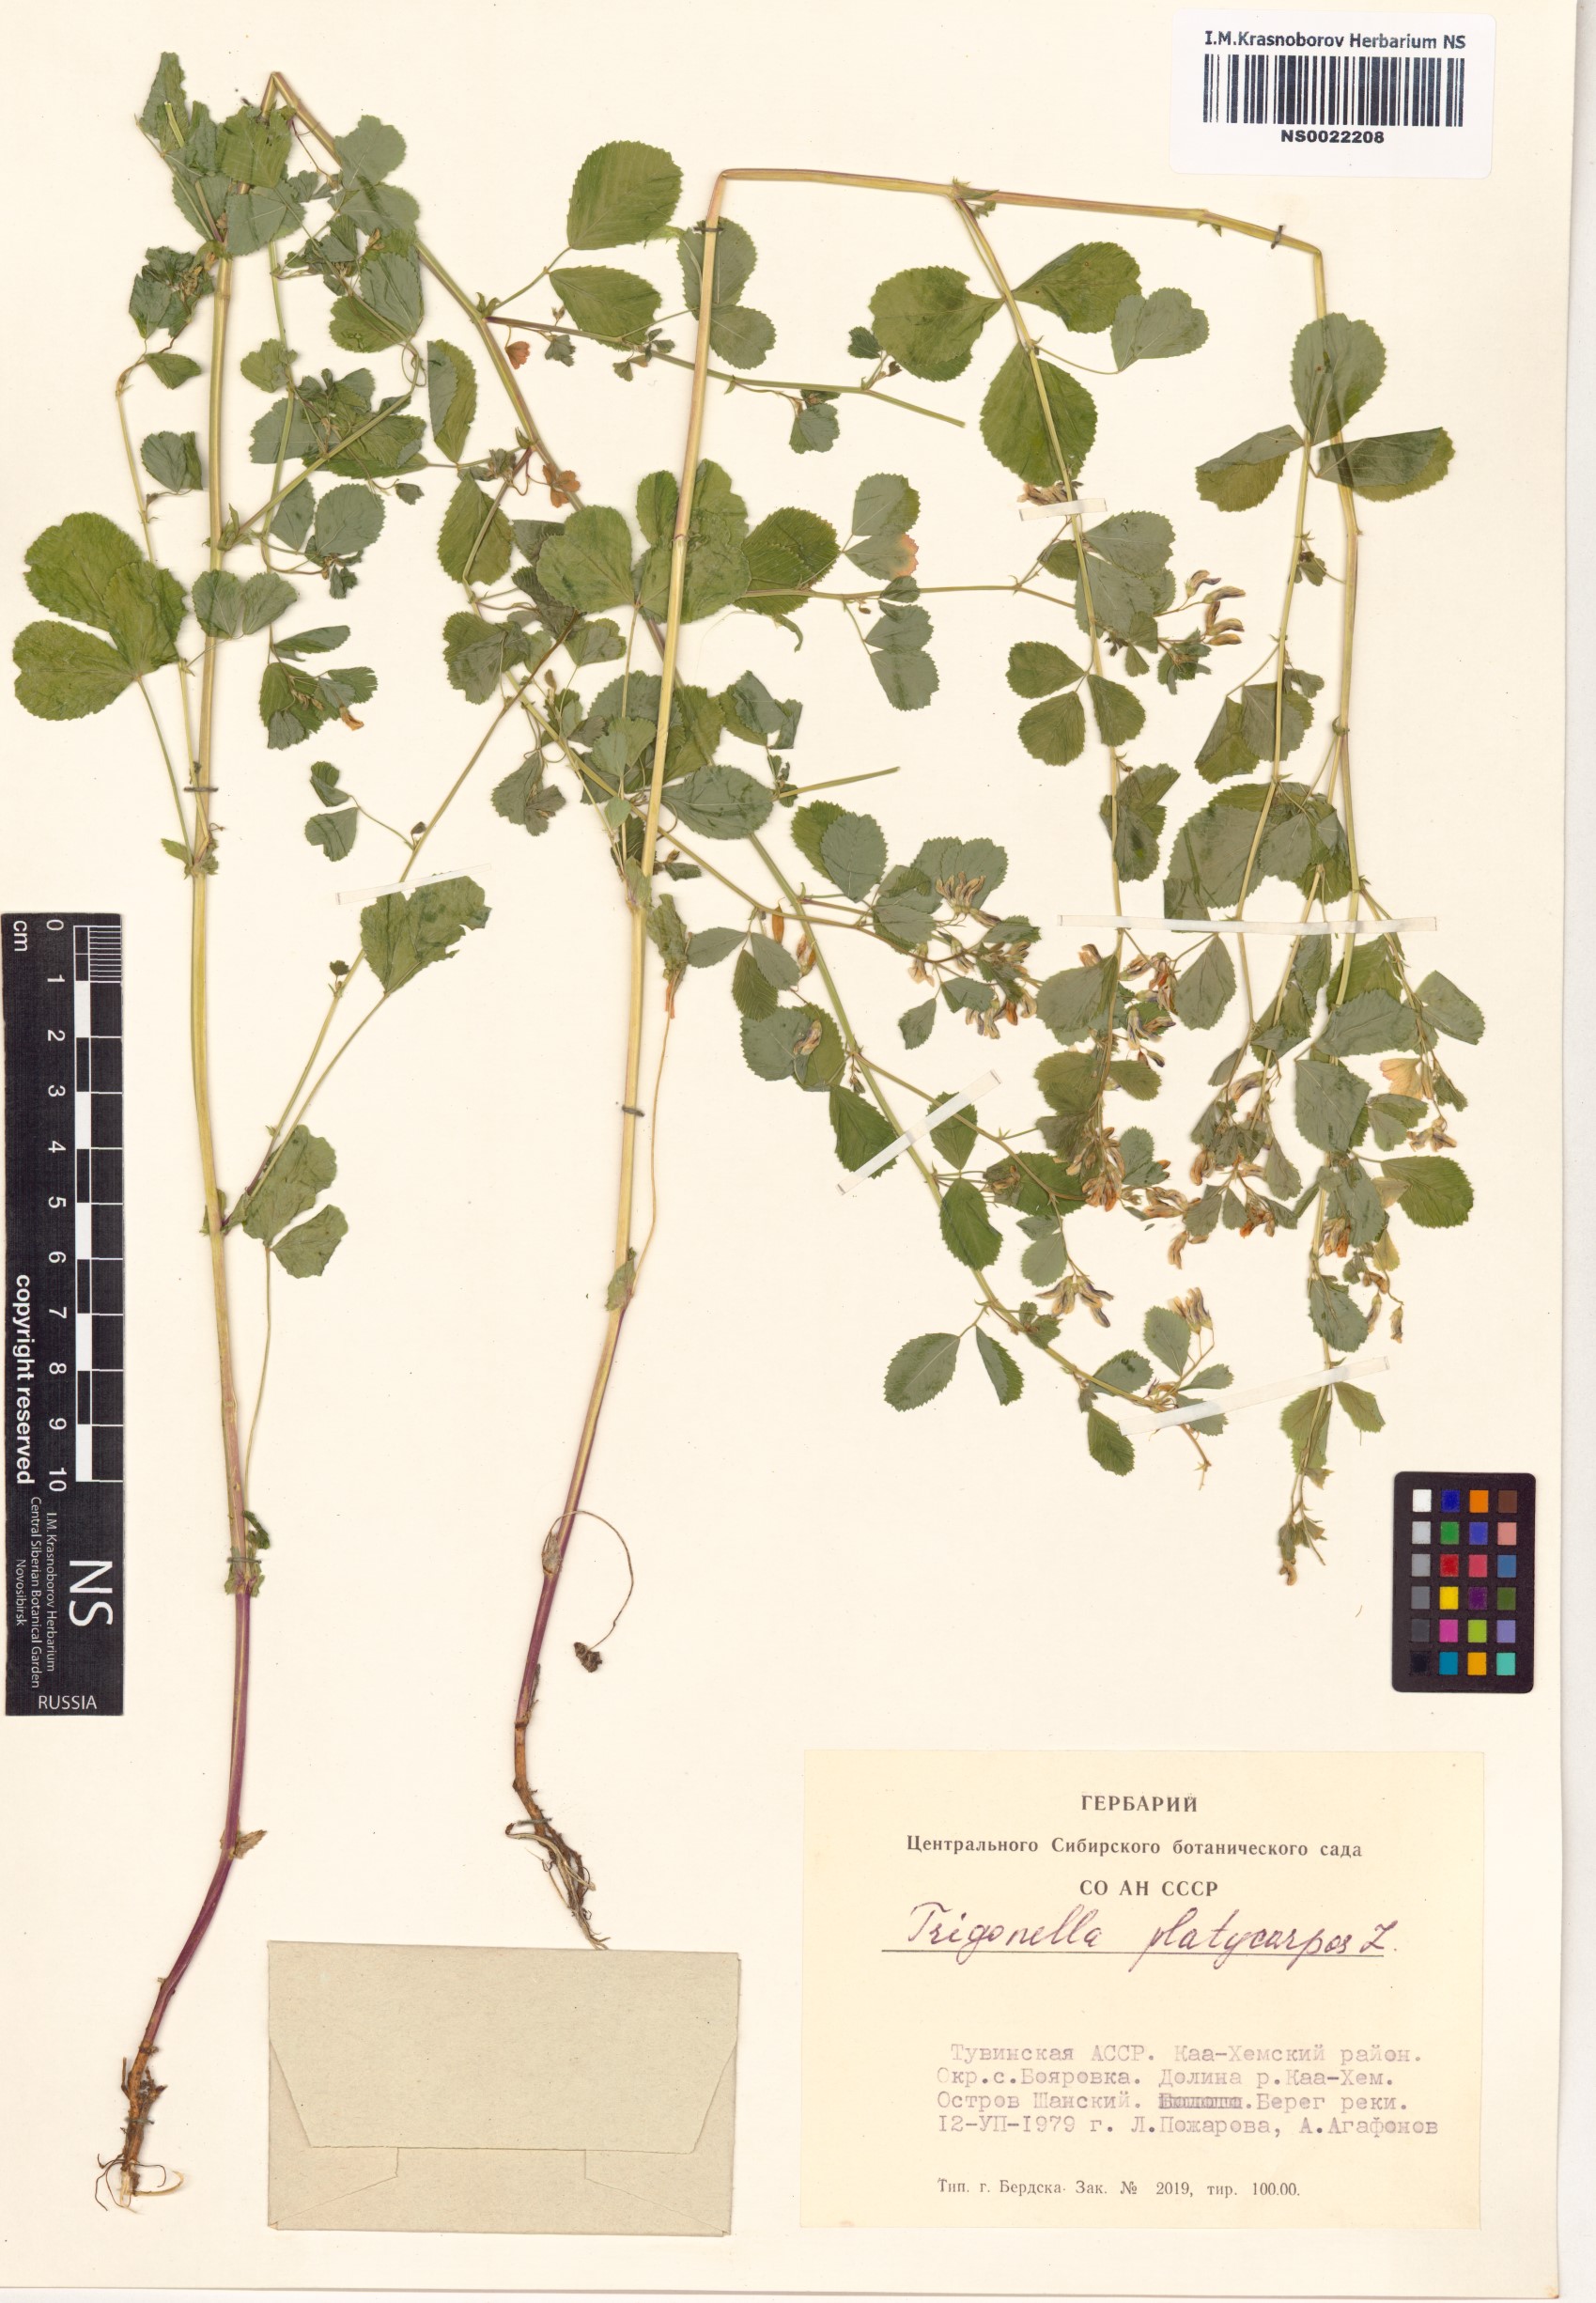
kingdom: Plantae
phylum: Tracheophyta
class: Magnoliopsida
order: Fabales
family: Fabaceae
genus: Medicago
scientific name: Medicago platycarpos
